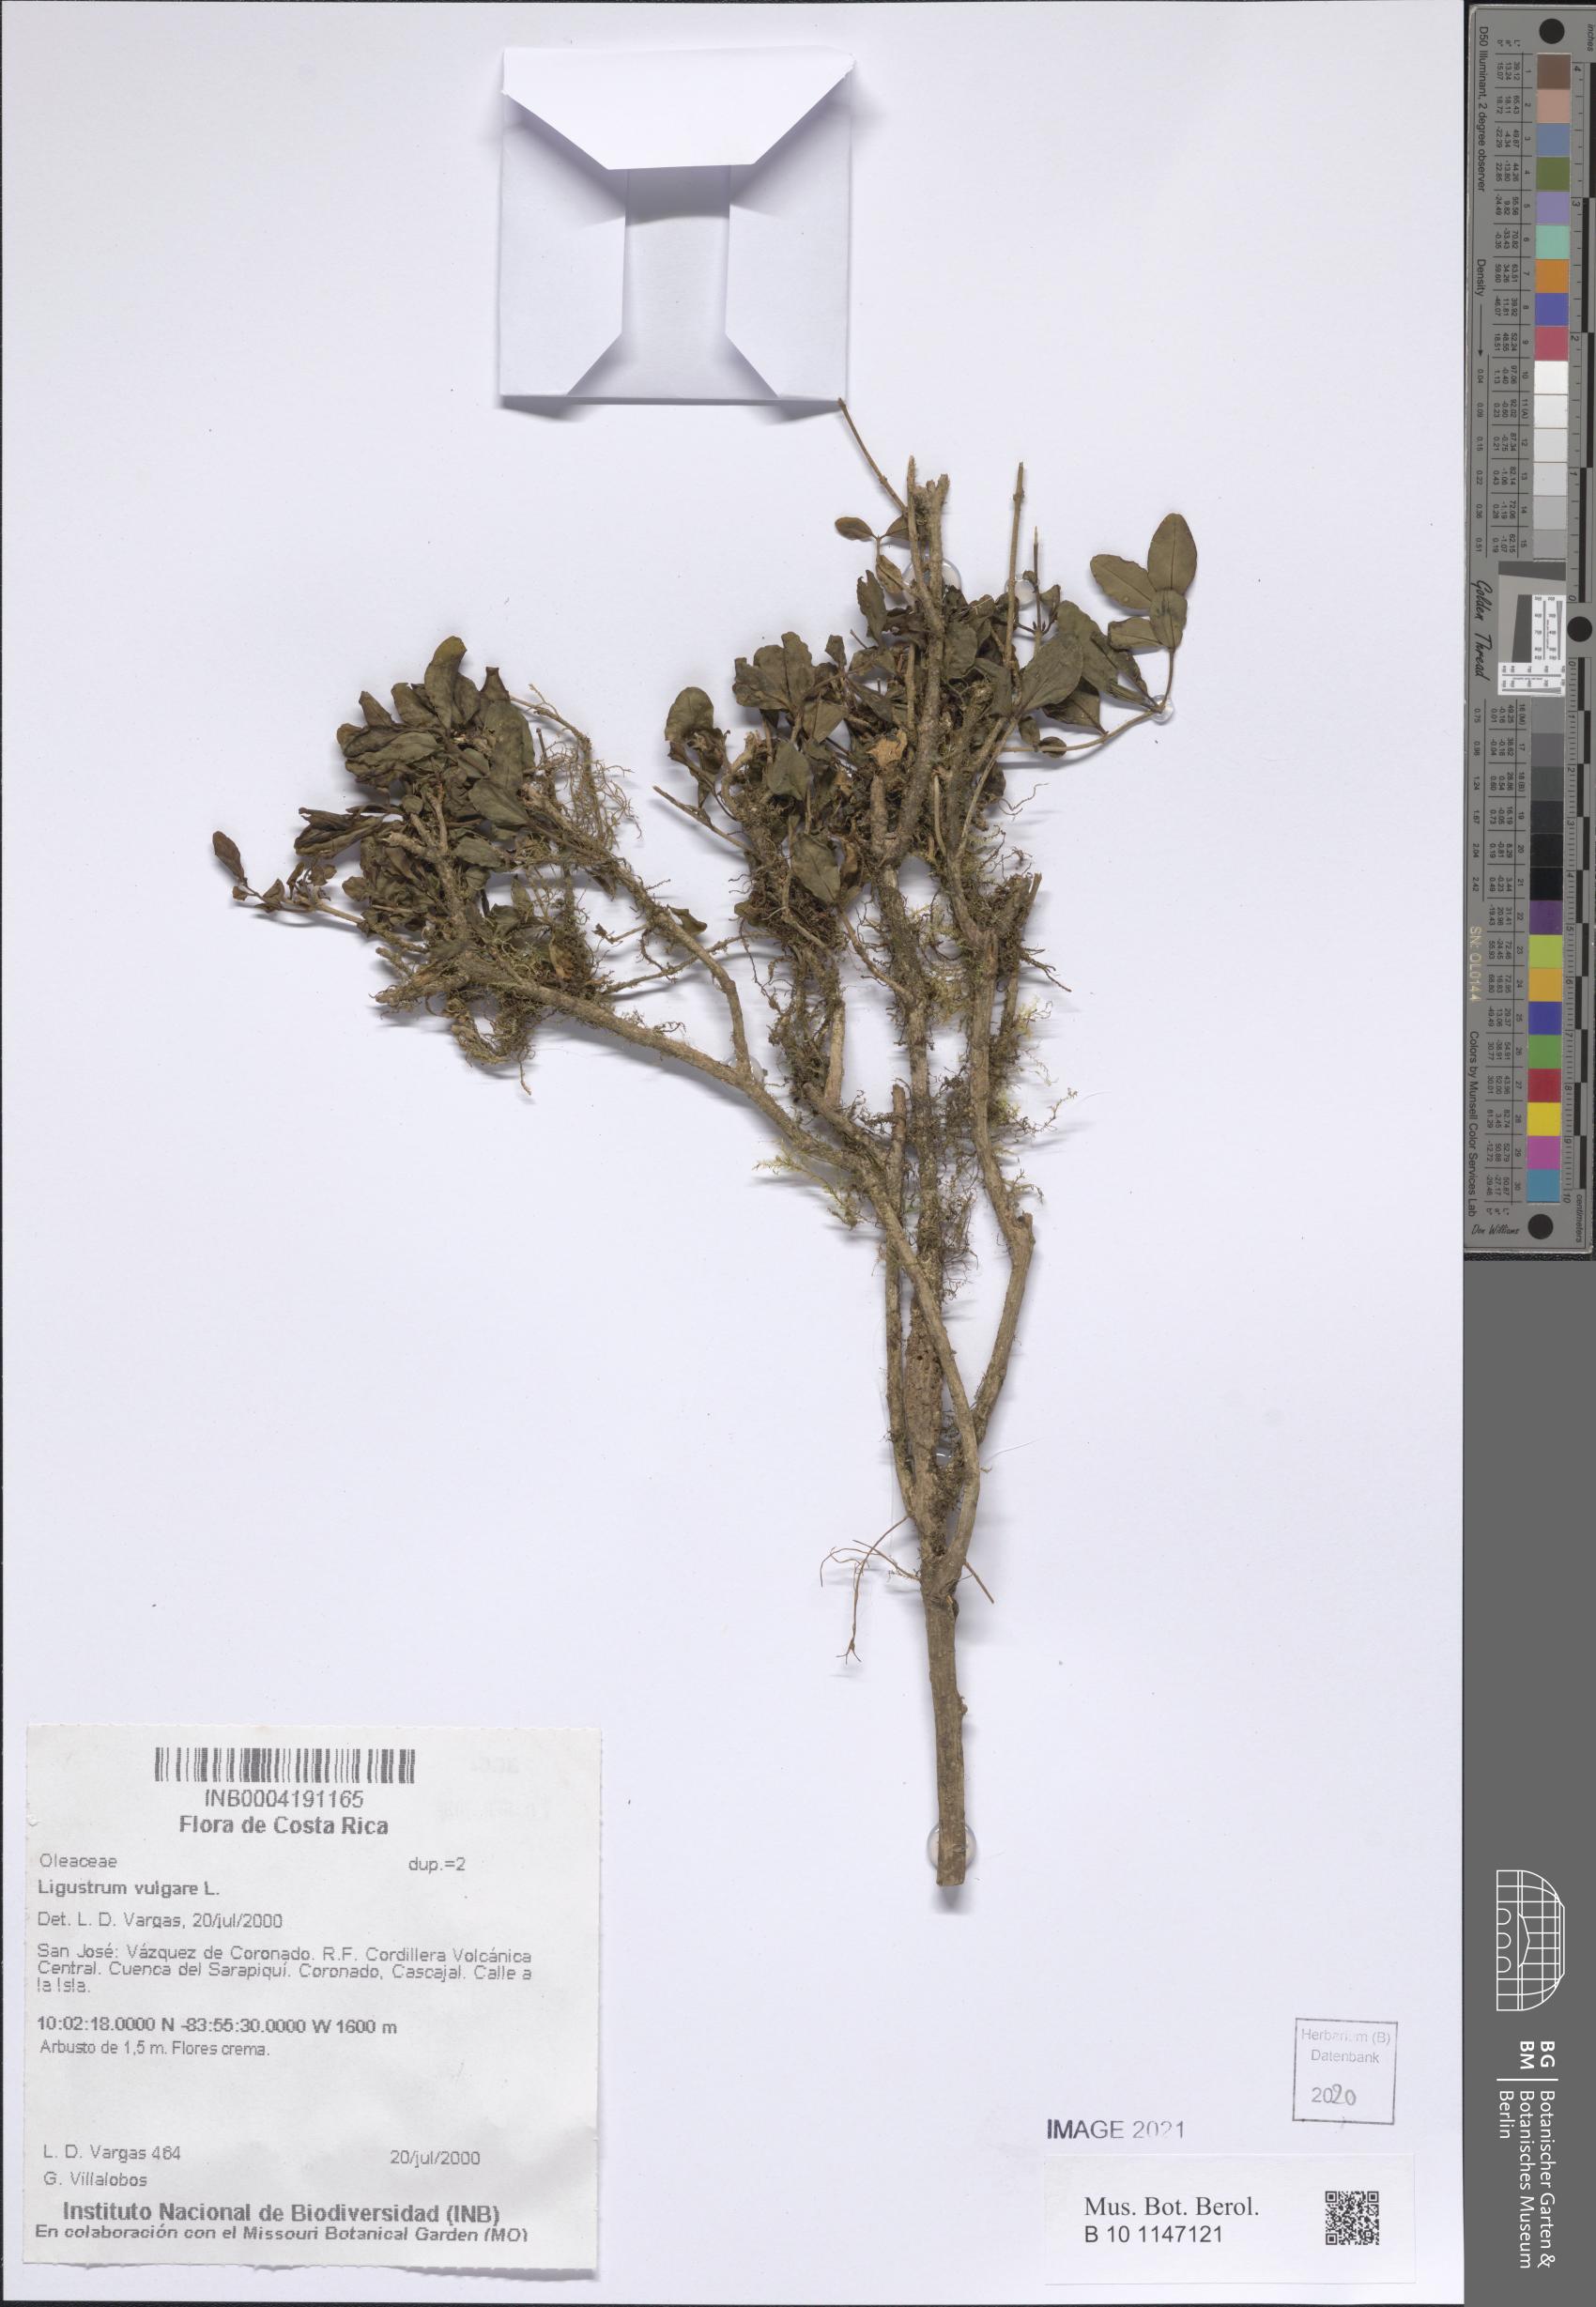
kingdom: Plantae
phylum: Tracheophyta
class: Magnoliopsida
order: Lamiales
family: Oleaceae
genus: Ligustrum
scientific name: Ligustrum vulgare
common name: Wild privet
